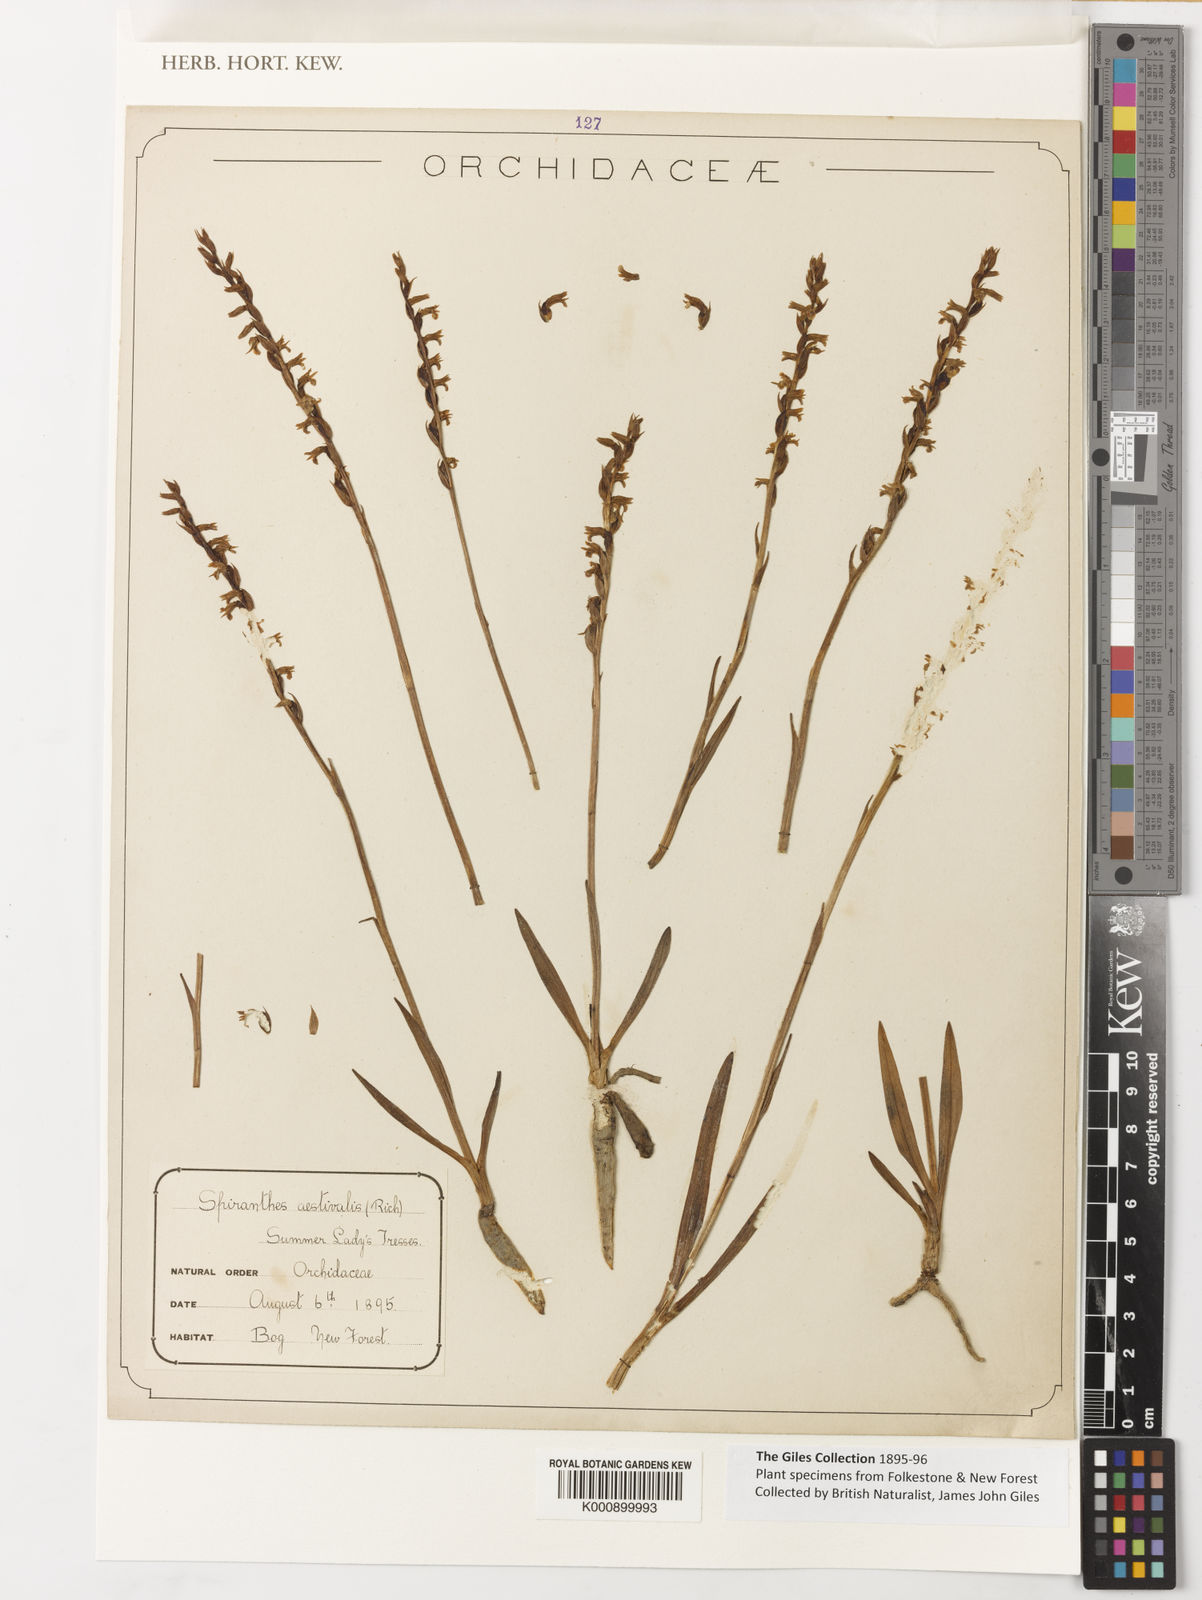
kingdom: Plantae
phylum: Tracheophyta
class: Liliopsida
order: Asparagales
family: Orchidaceae
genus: Spiranthes
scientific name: Spiranthes aestivalis
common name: Summer lady's-tresses
